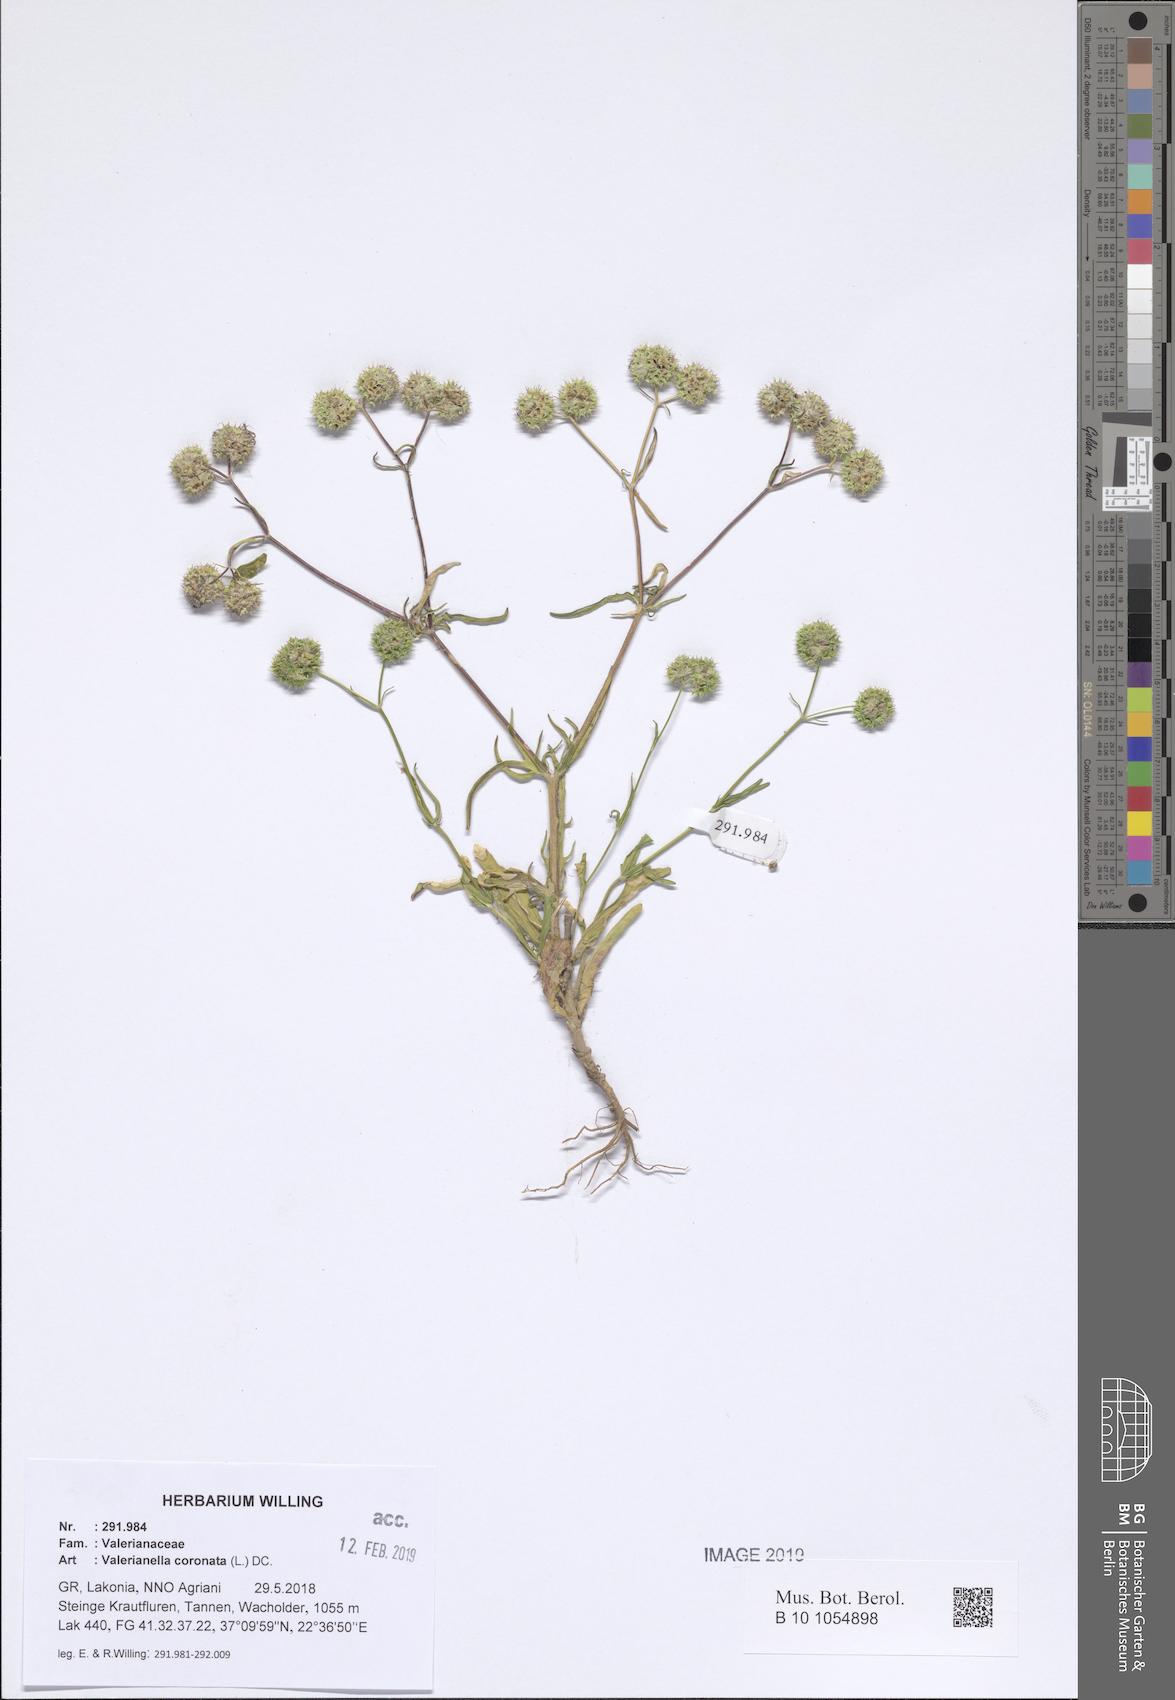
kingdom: Plantae
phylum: Tracheophyta
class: Magnoliopsida
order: Dipsacales
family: Caprifoliaceae
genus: Valerianella
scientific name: Valerianella coronata
